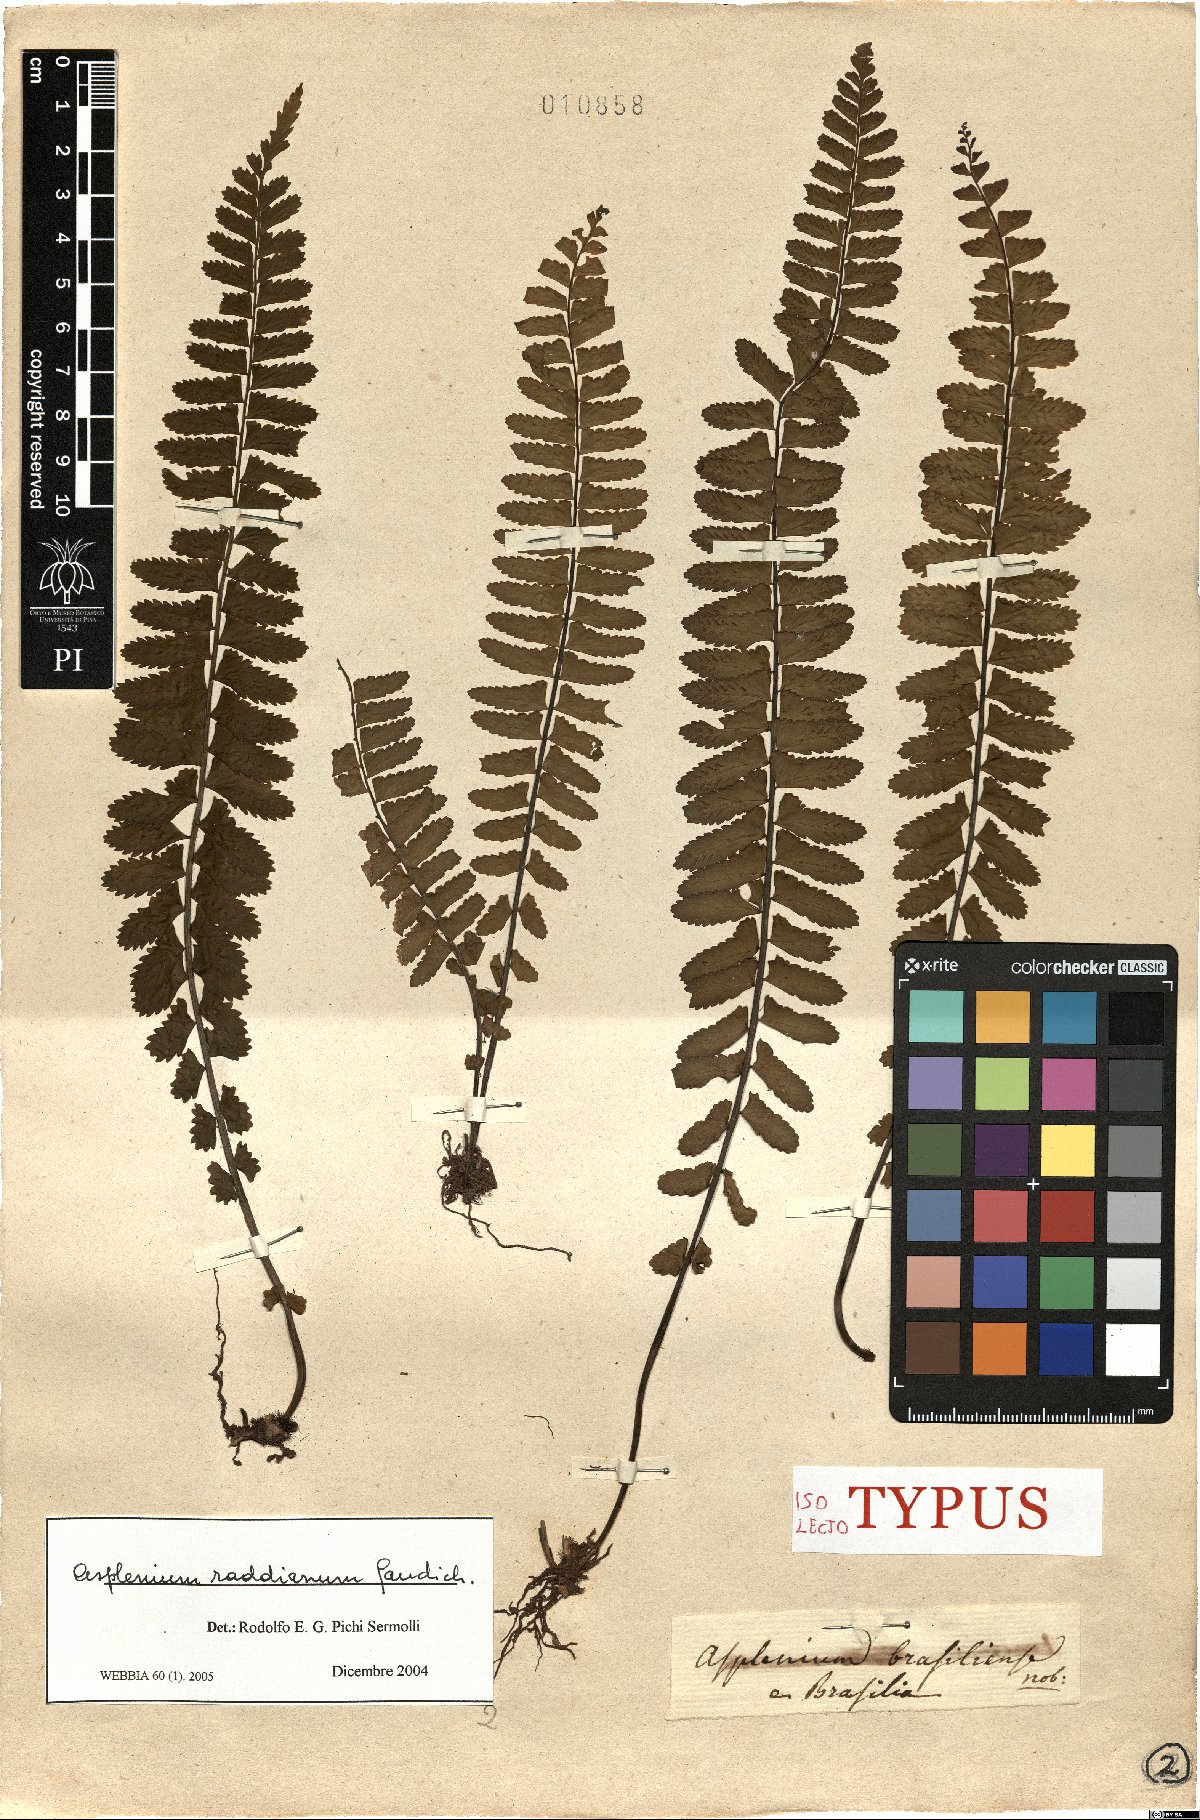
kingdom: Plantae
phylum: Tracheophyta
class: Polypodiopsida
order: Polypodiales
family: Aspleniaceae
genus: Asplenium
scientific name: Asplenium raddianum
